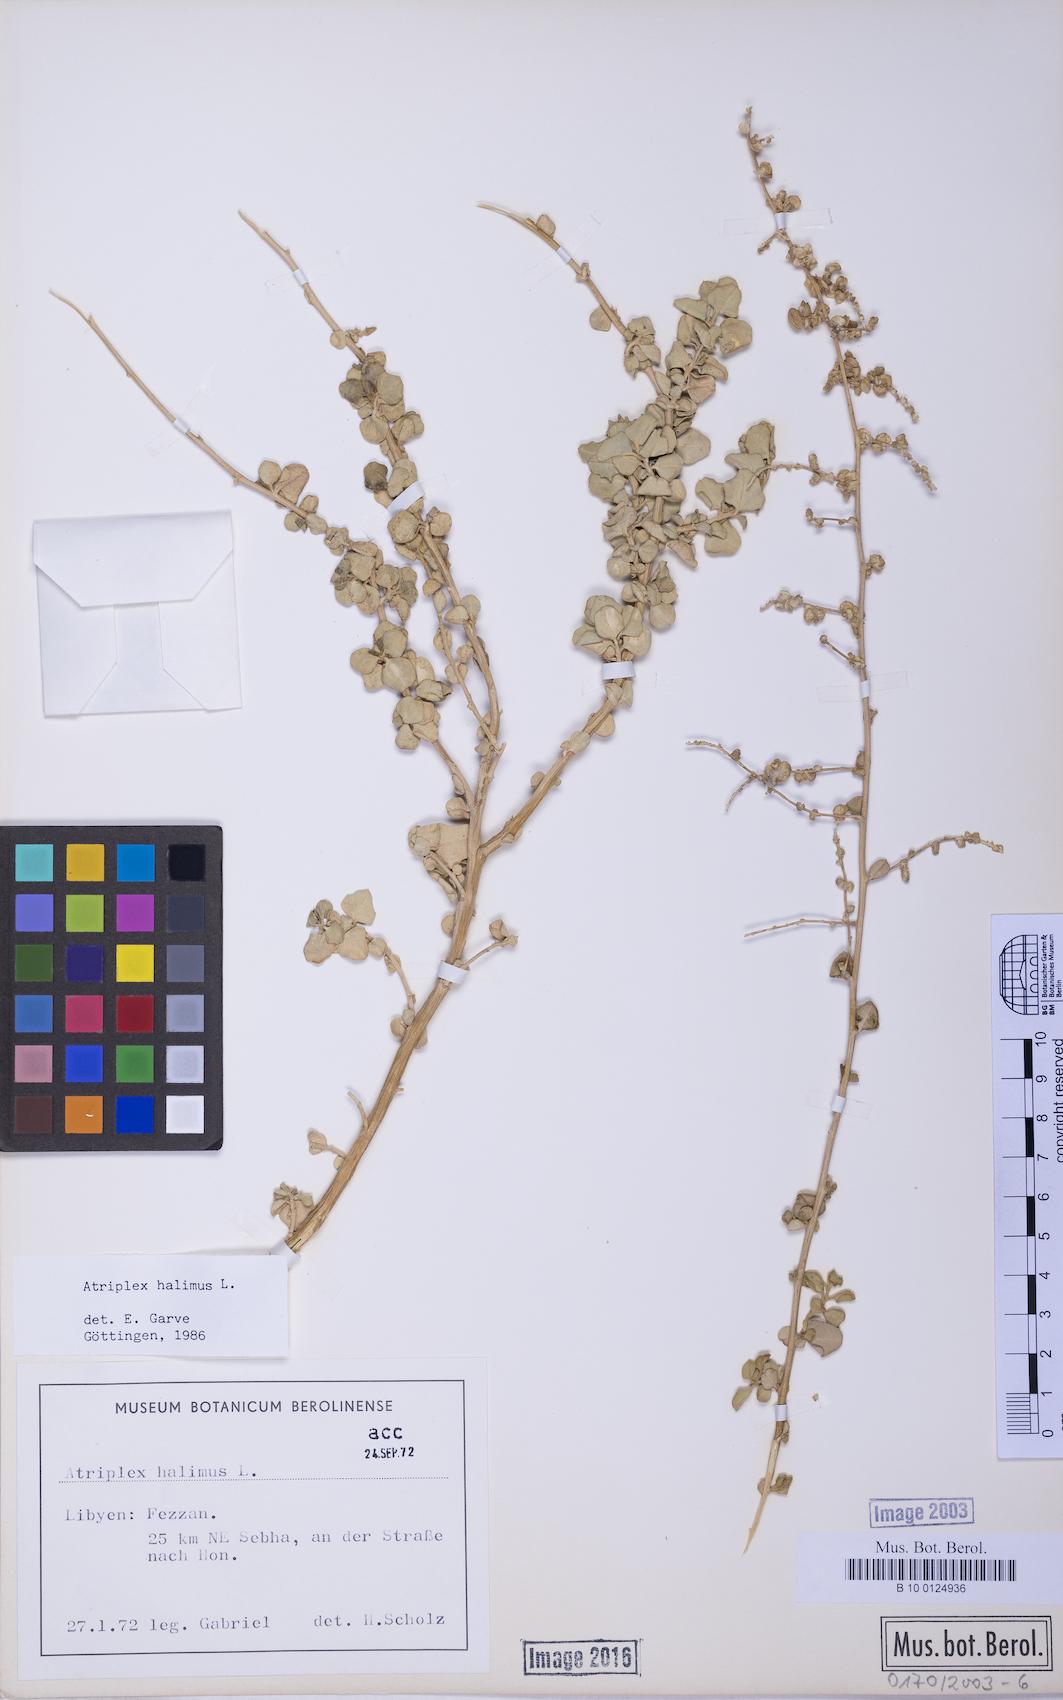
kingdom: Plantae
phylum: Tracheophyta
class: Magnoliopsida
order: Caryophyllales
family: Amaranthaceae
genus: Atriplex
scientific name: Atriplex halimus
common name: Shrubby orache
